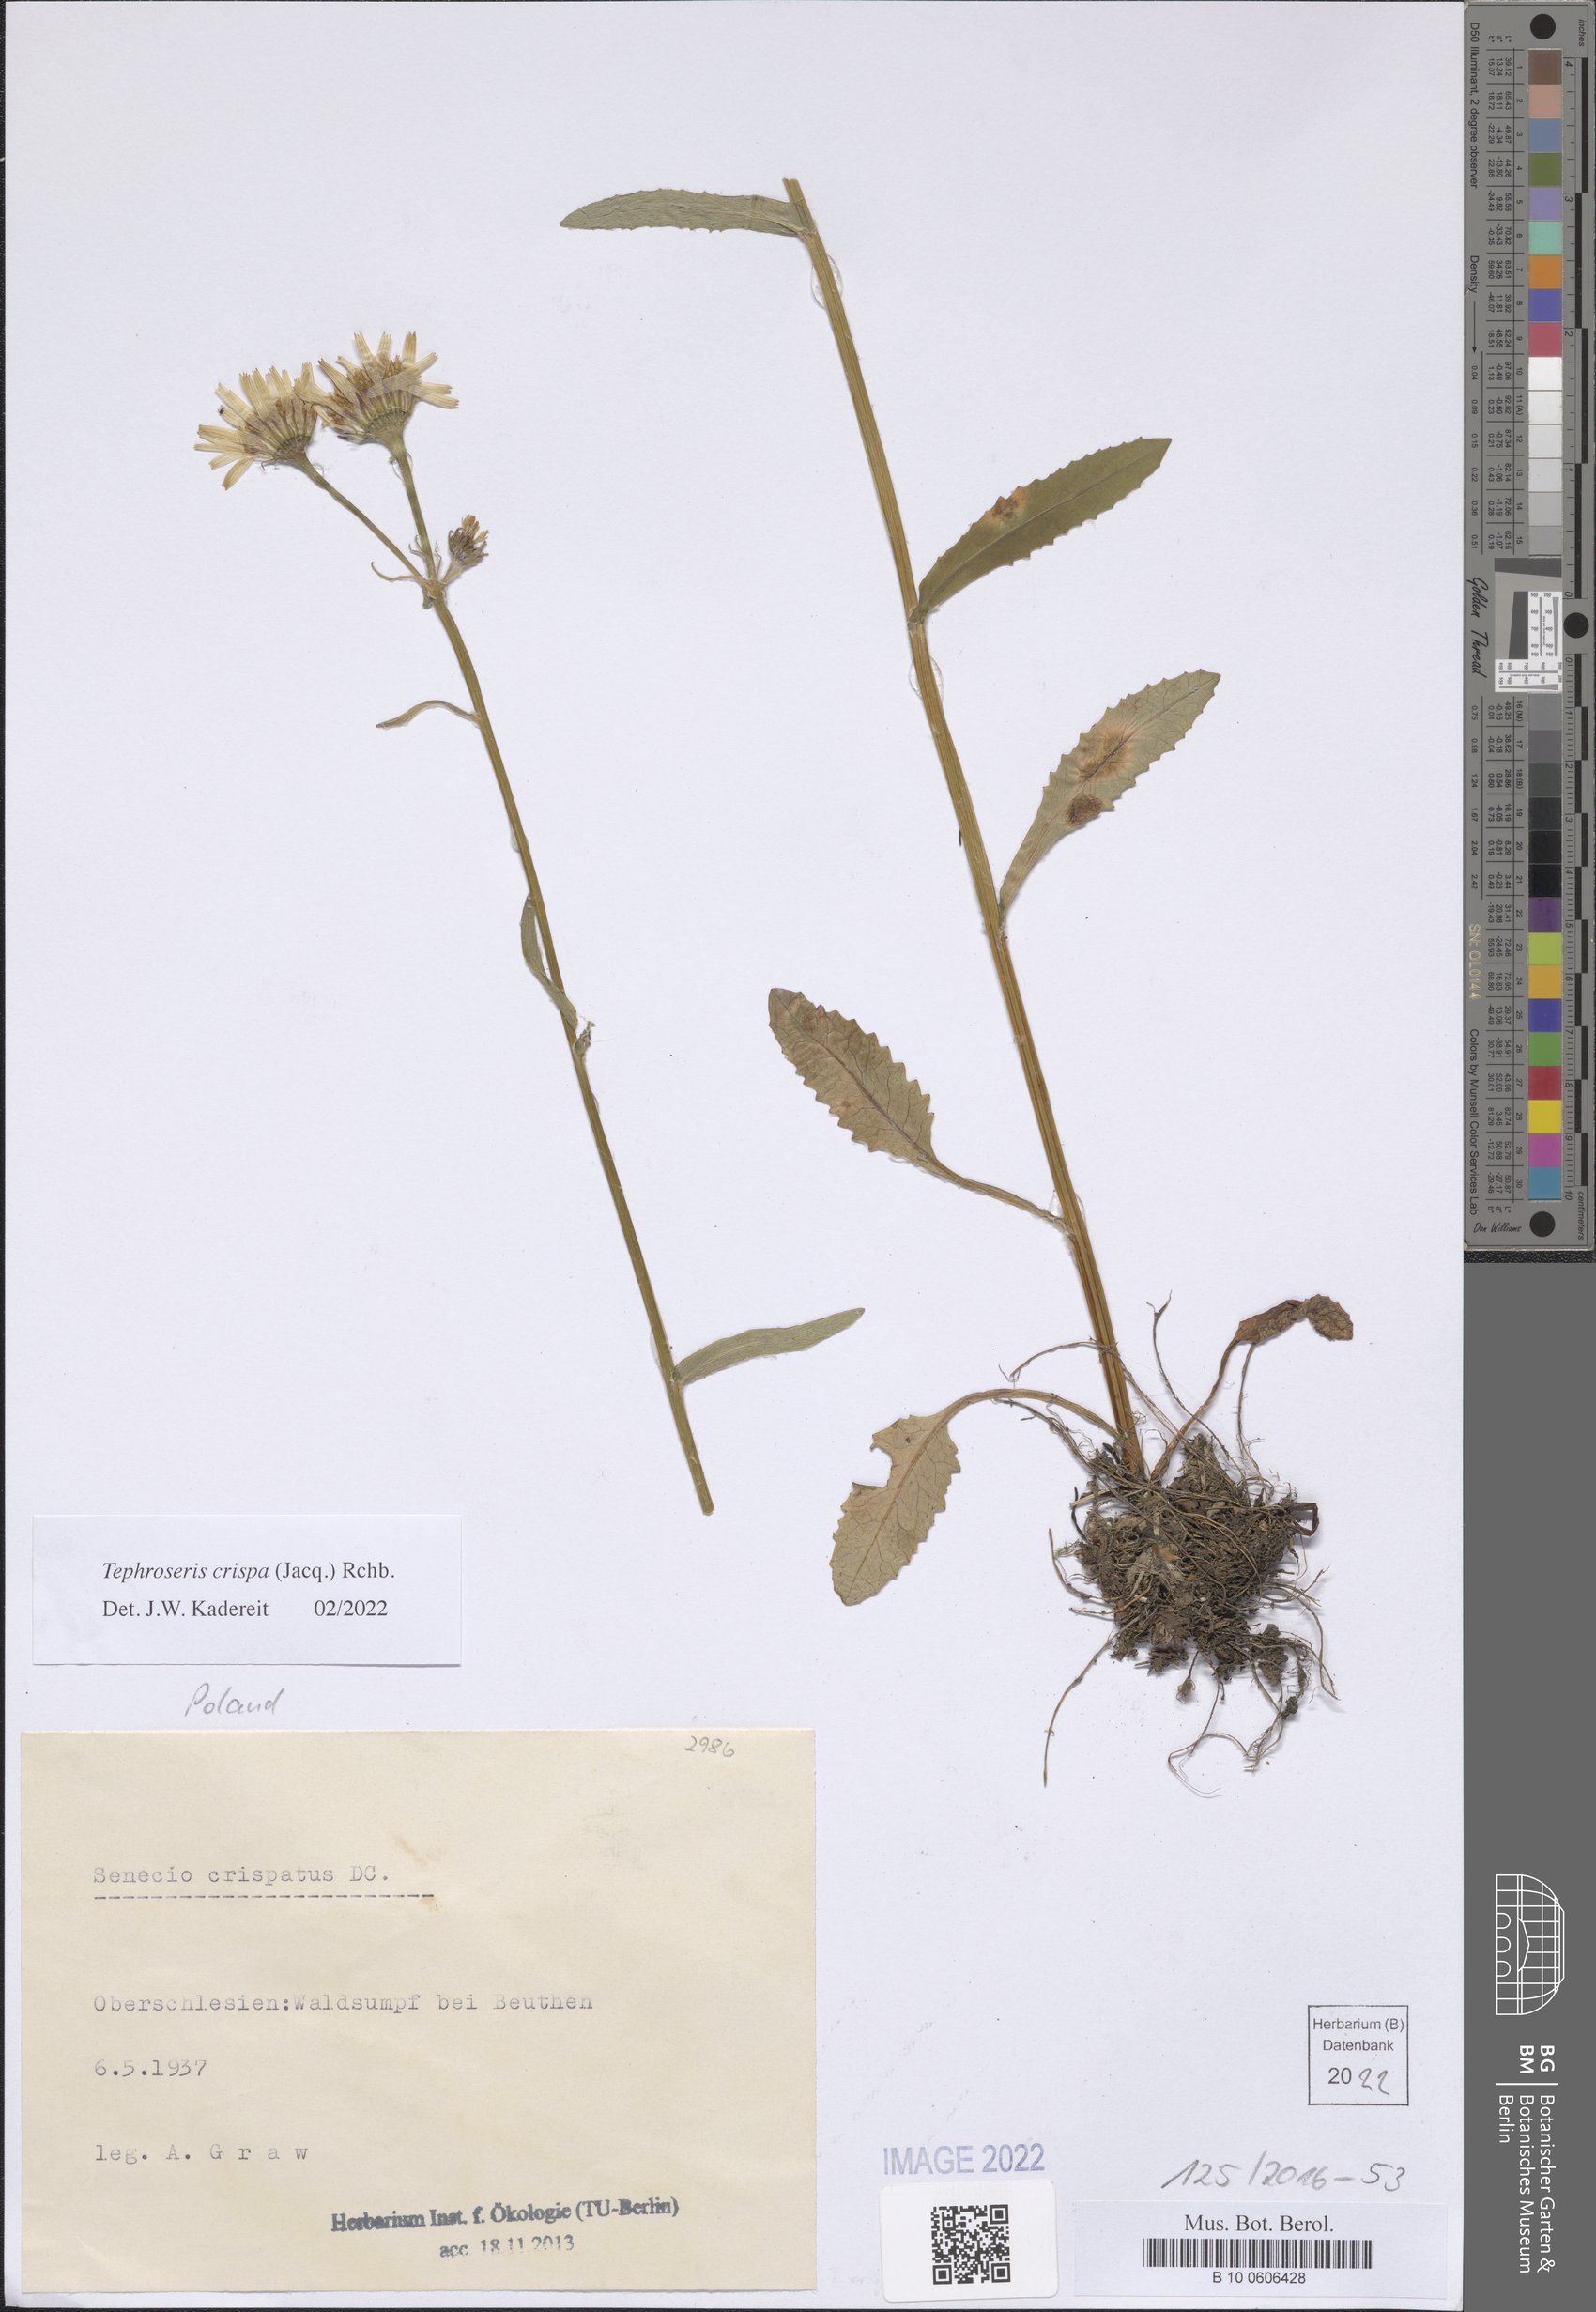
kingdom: Plantae
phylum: Tracheophyta
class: Magnoliopsida
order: Asterales
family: Asteraceae
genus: Tephroseris
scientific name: Tephroseris crispa
